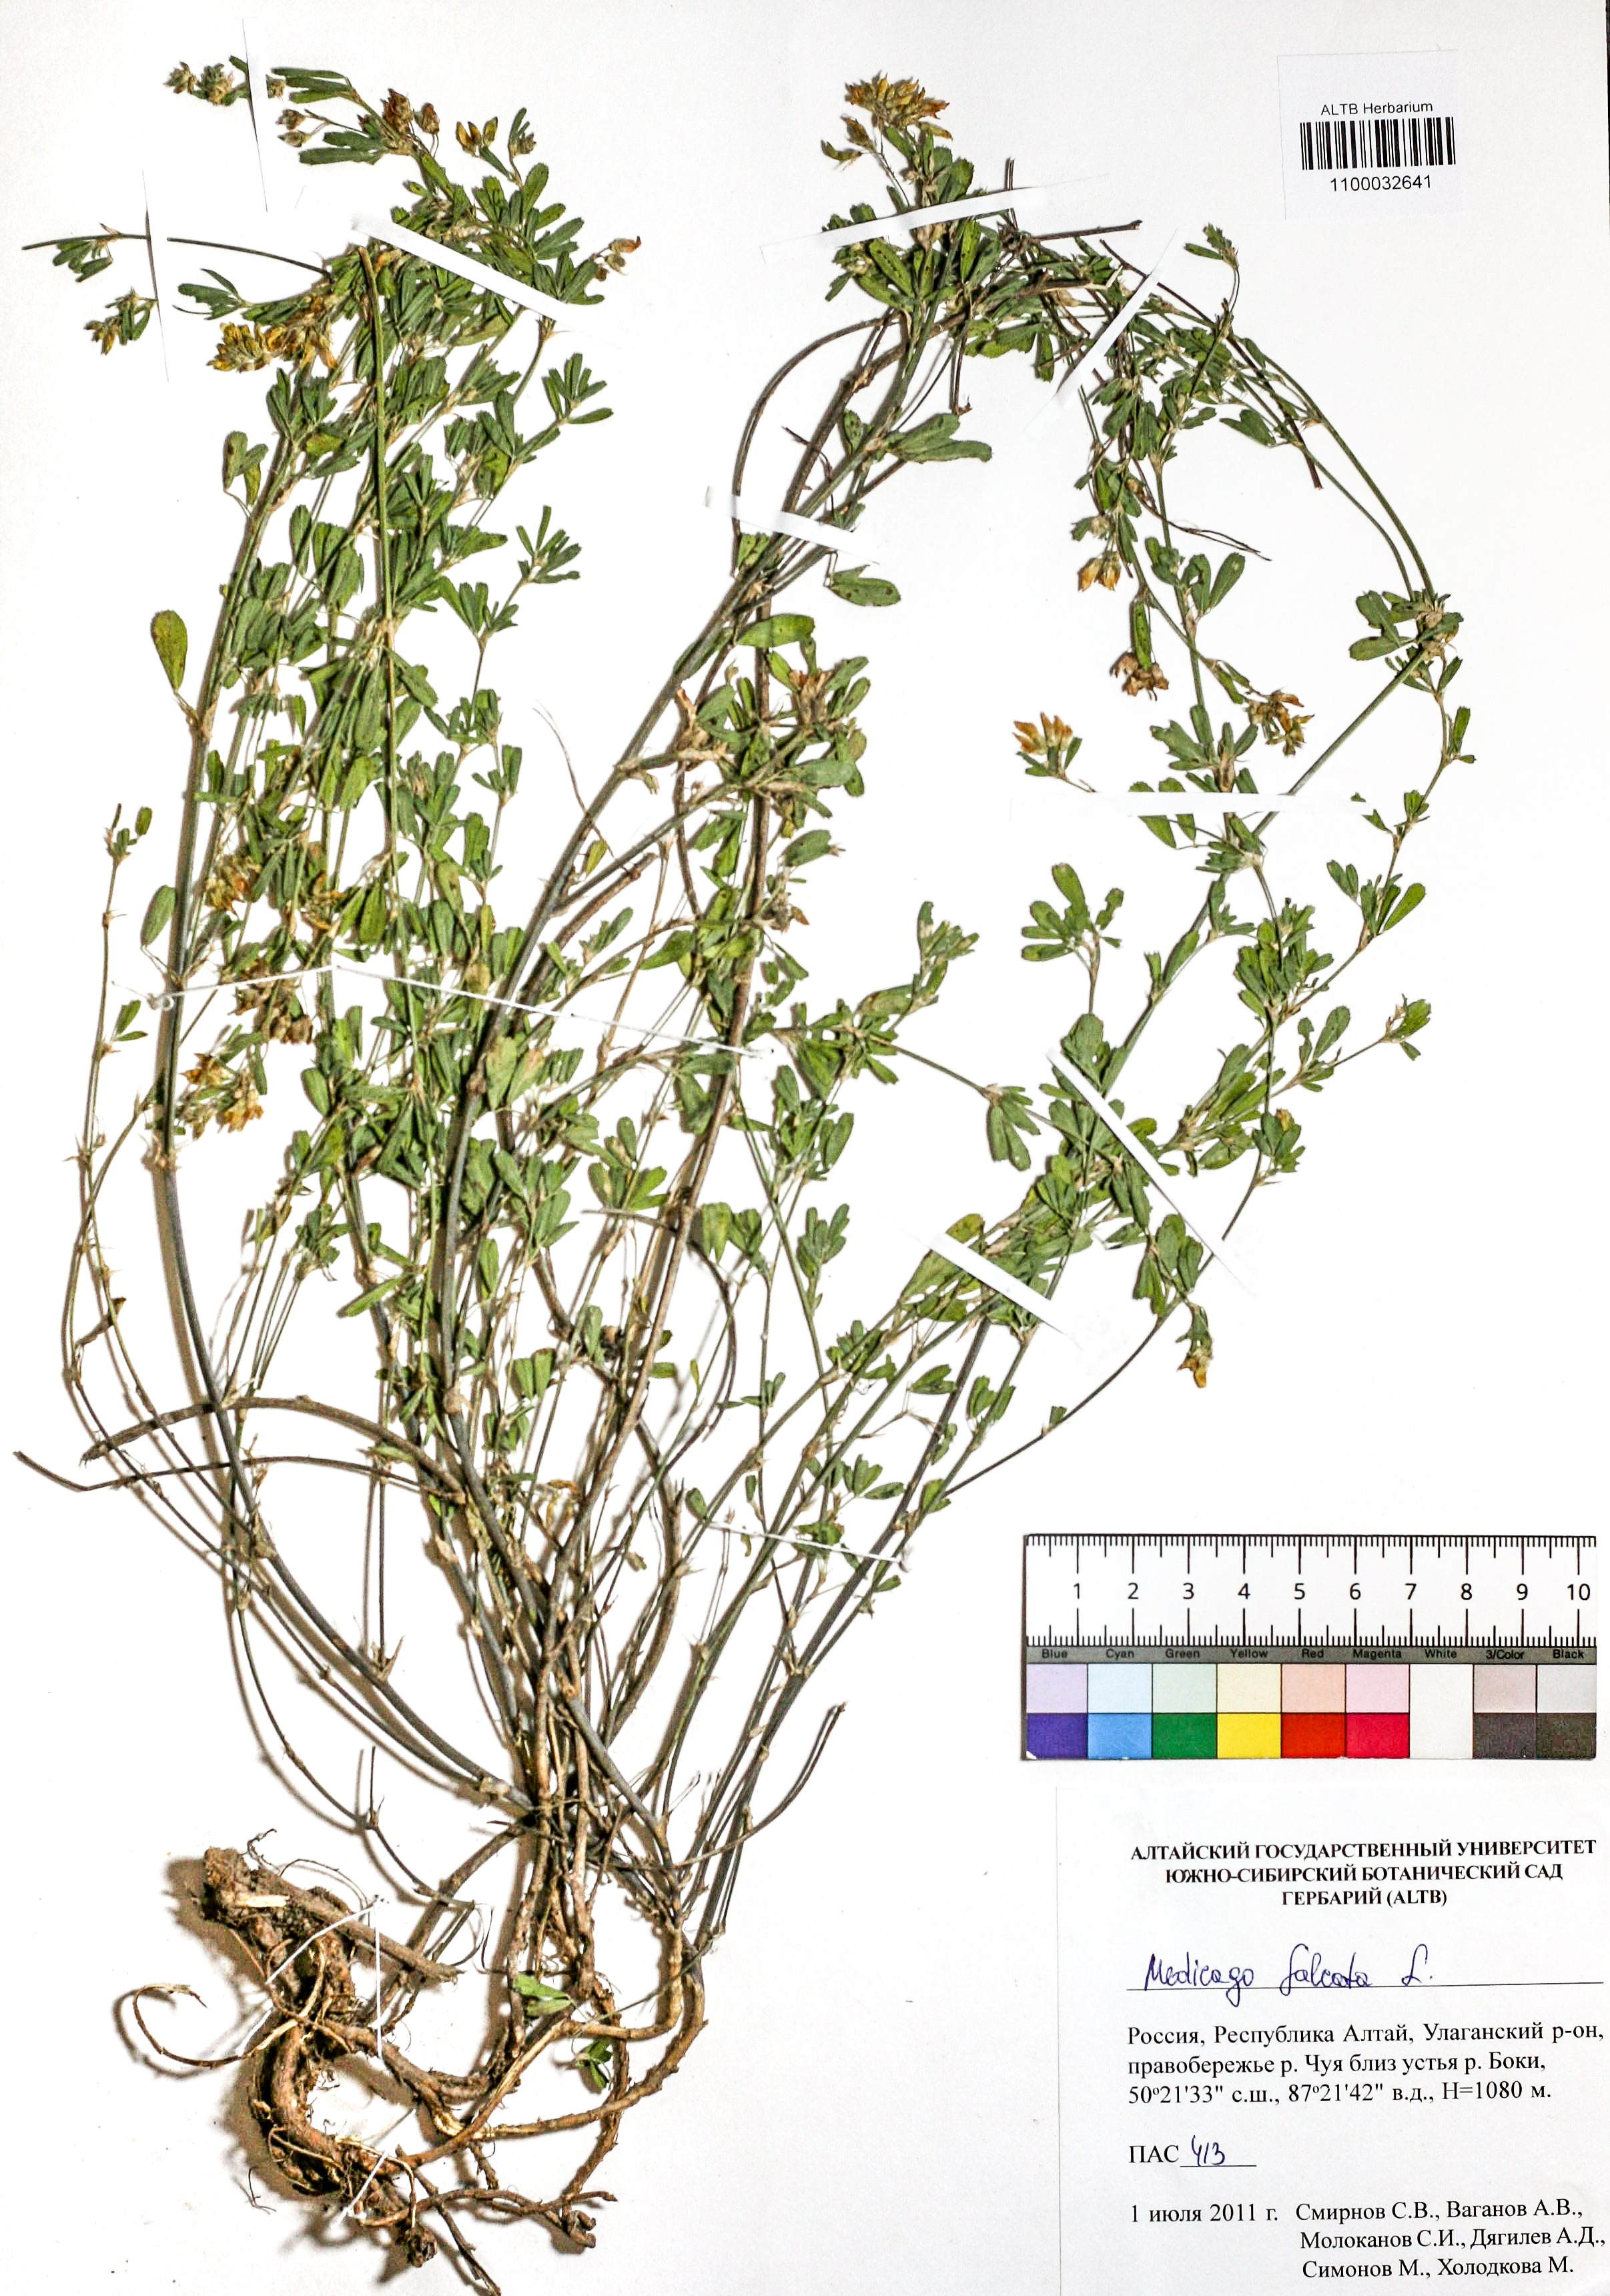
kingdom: Plantae
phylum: Tracheophyta
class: Magnoliopsida
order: Fabales
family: Fabaceae
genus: Medicago
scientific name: Medicago falcata
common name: Sickle medick
